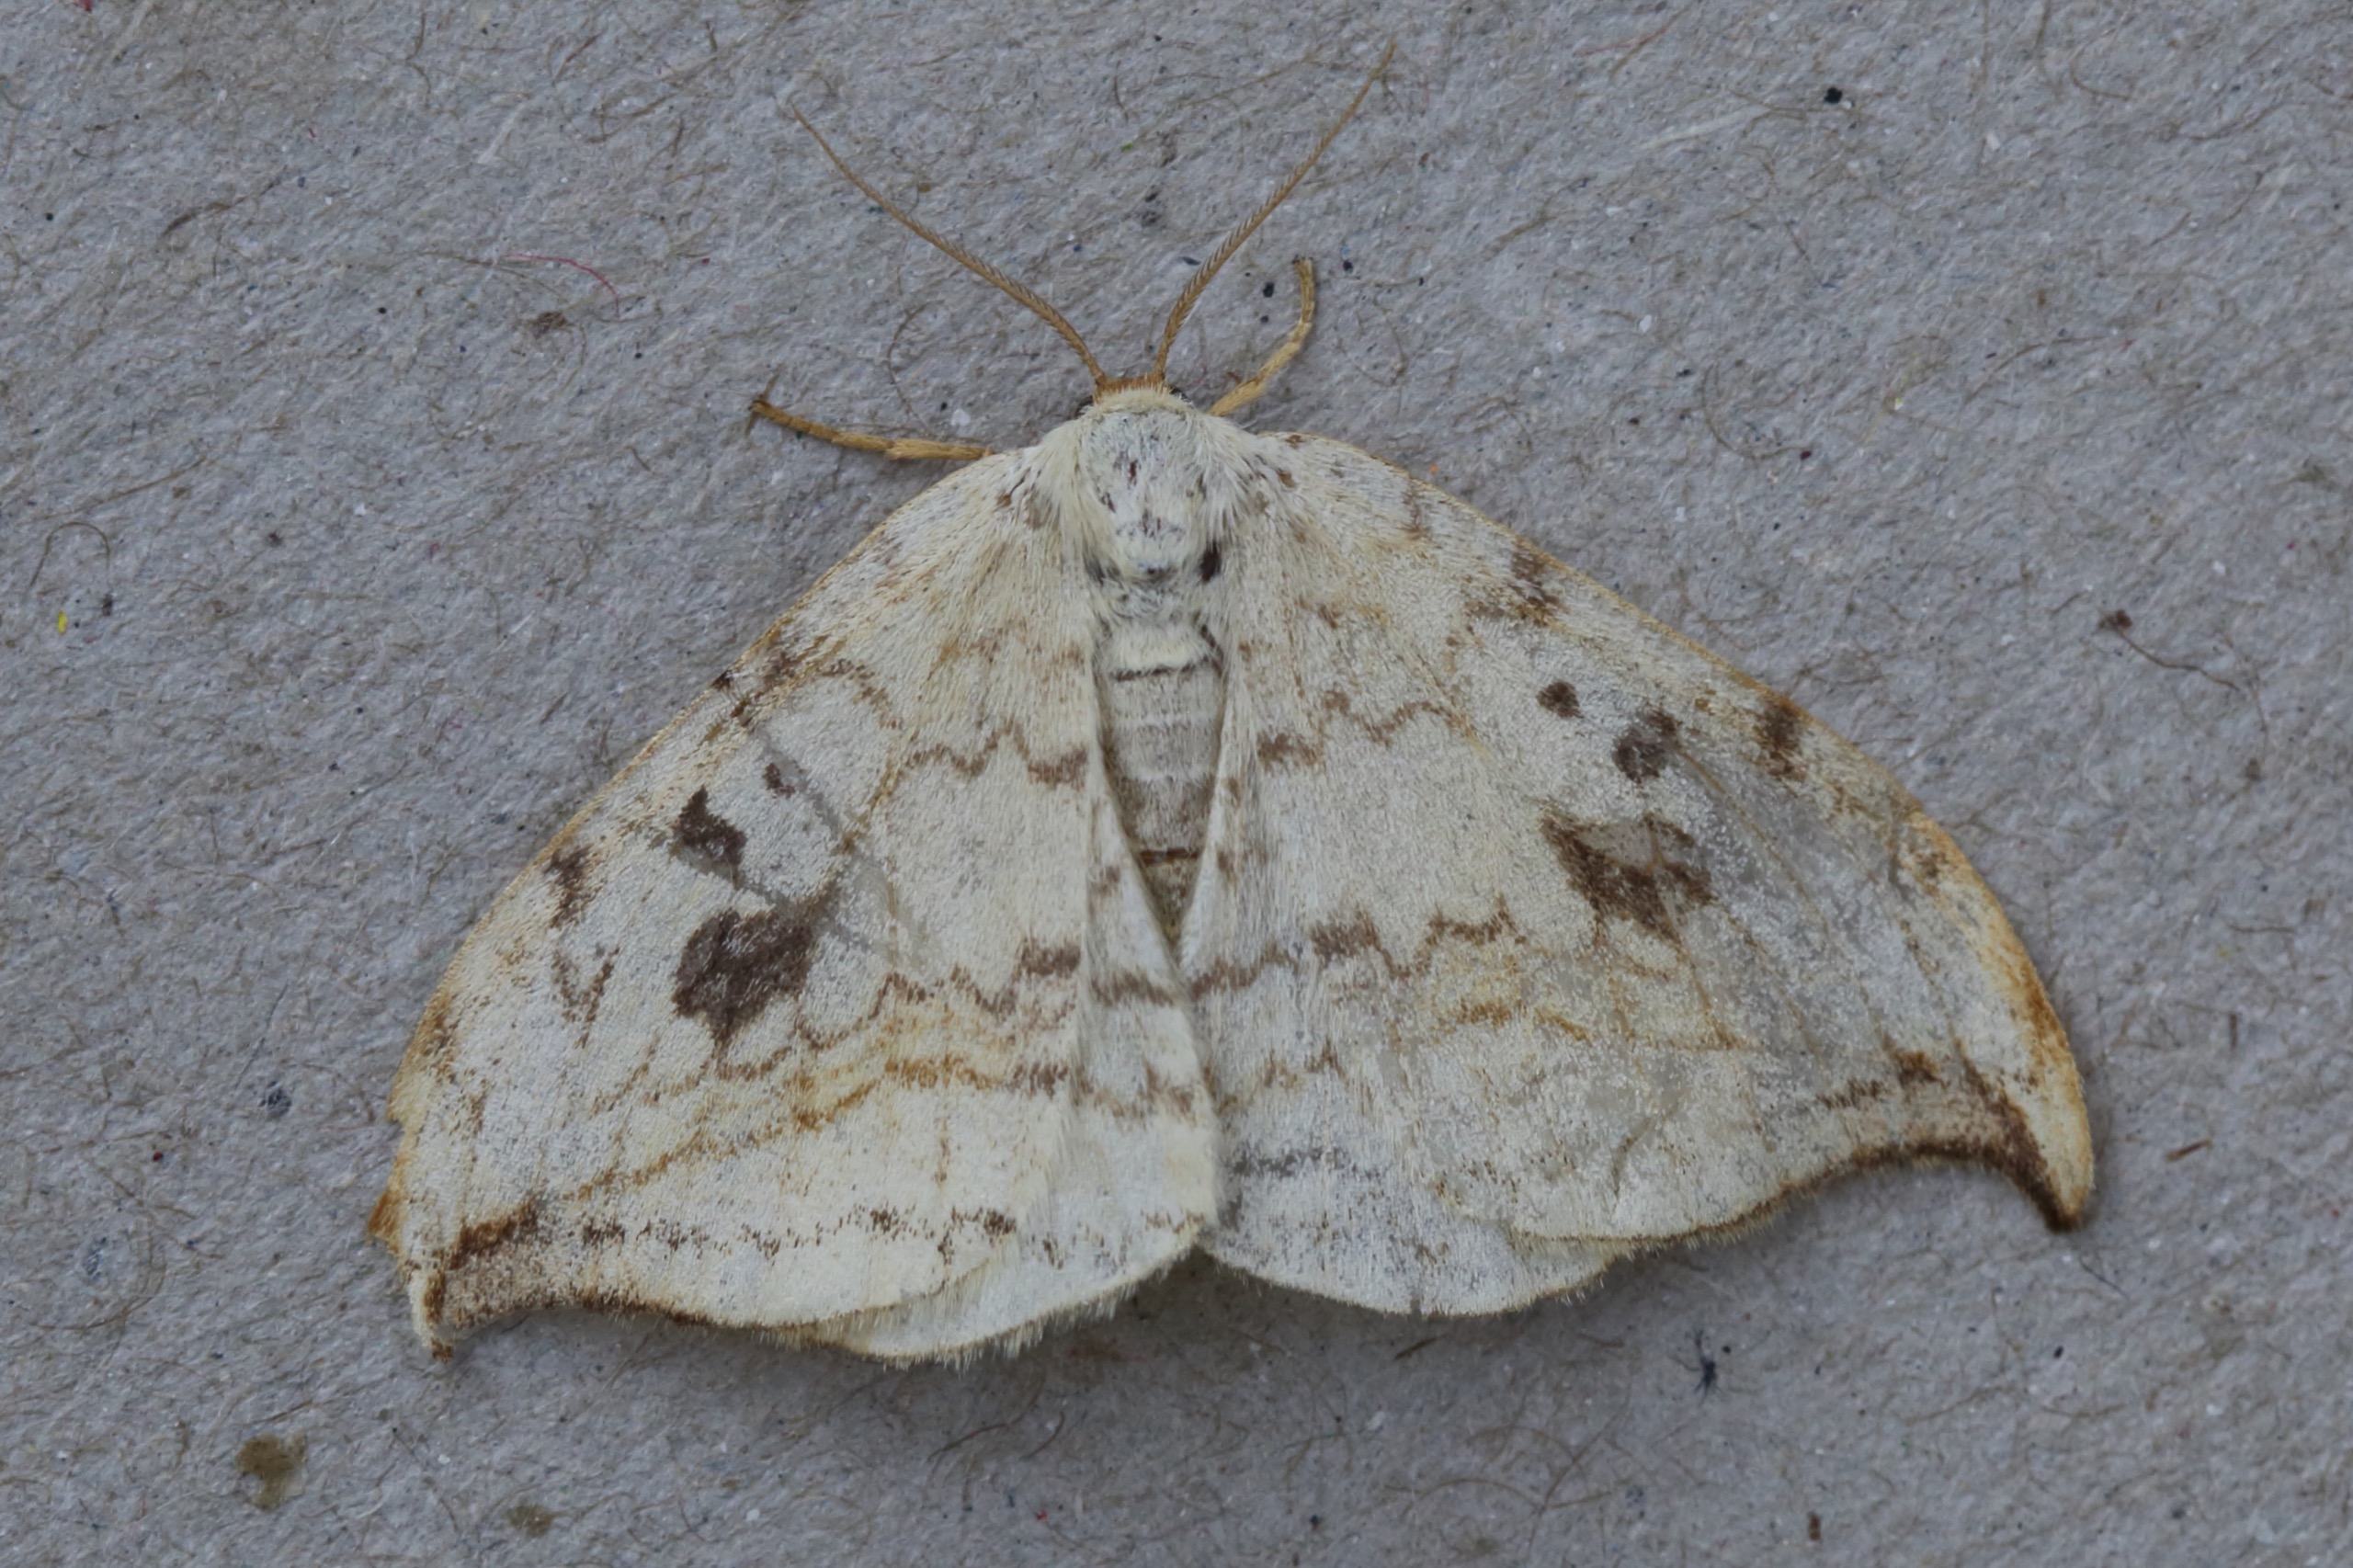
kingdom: Animalia
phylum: Arthropoda
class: Insecta
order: Lepidoptera
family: Drepanidae
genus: Drepana
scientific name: Drepana falcataria
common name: Birkeseglvinge
